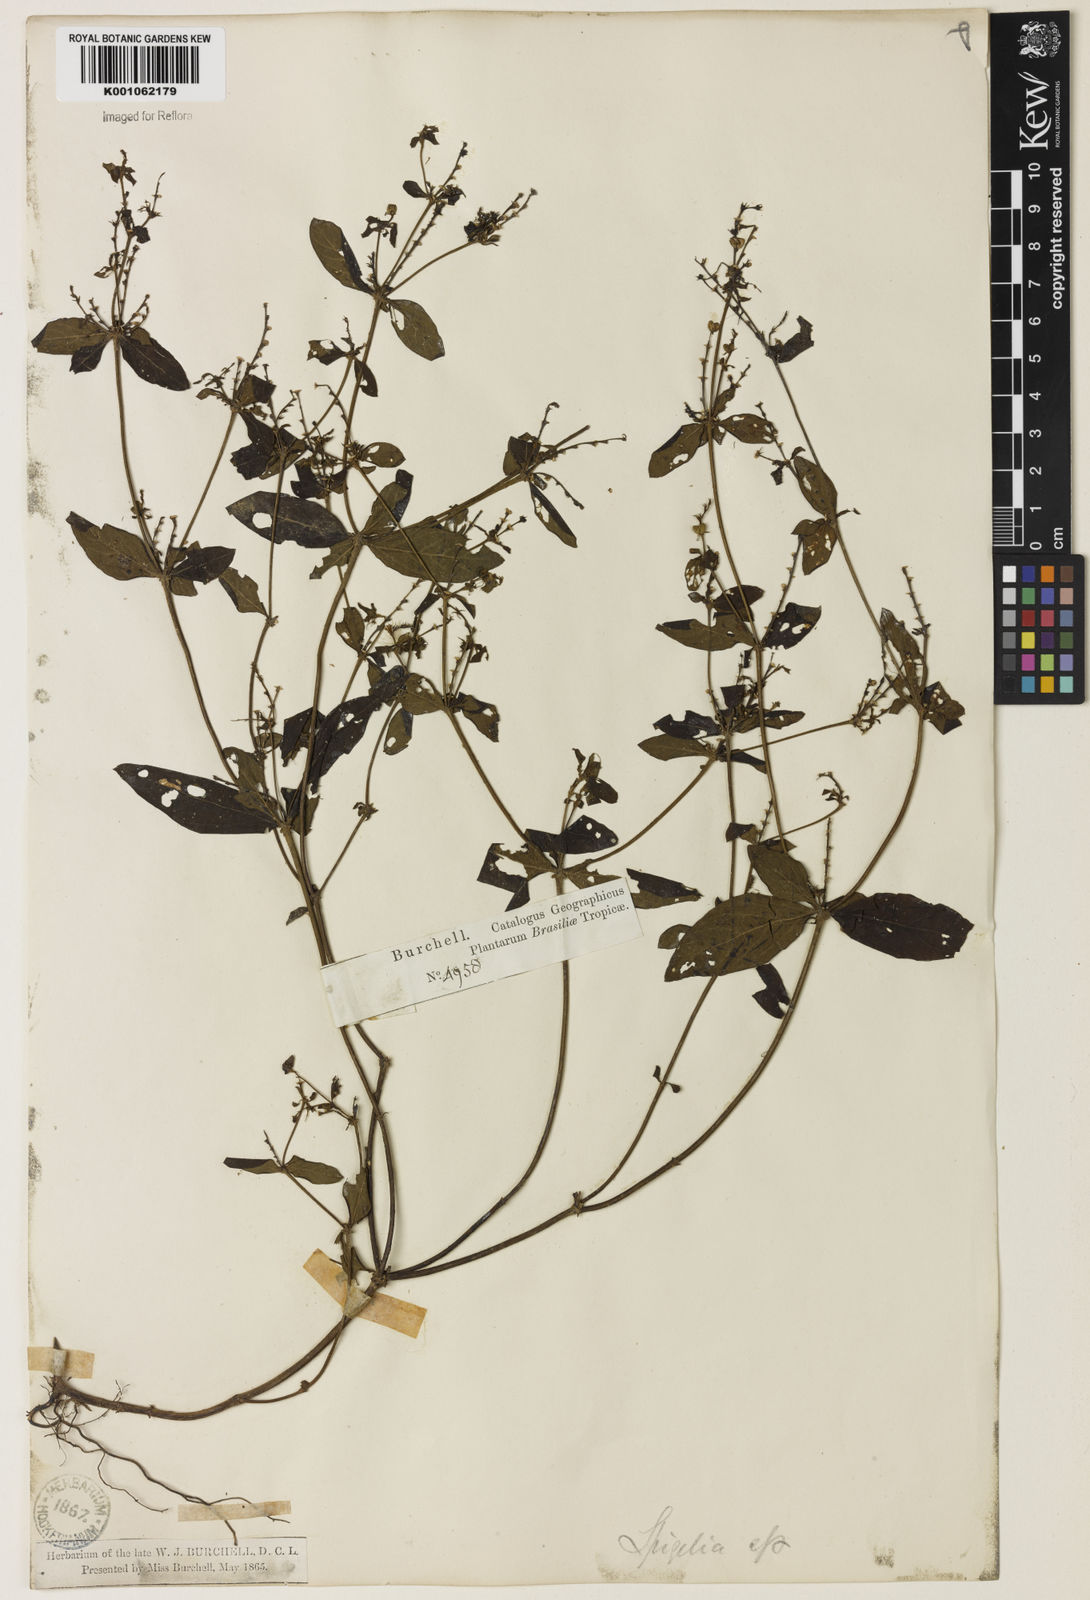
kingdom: Plantae
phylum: Tracheophyta
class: Magnoliopsida
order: Gentianales
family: Loganiaceae
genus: Spigelia
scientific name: Spigelia humboldtiana
